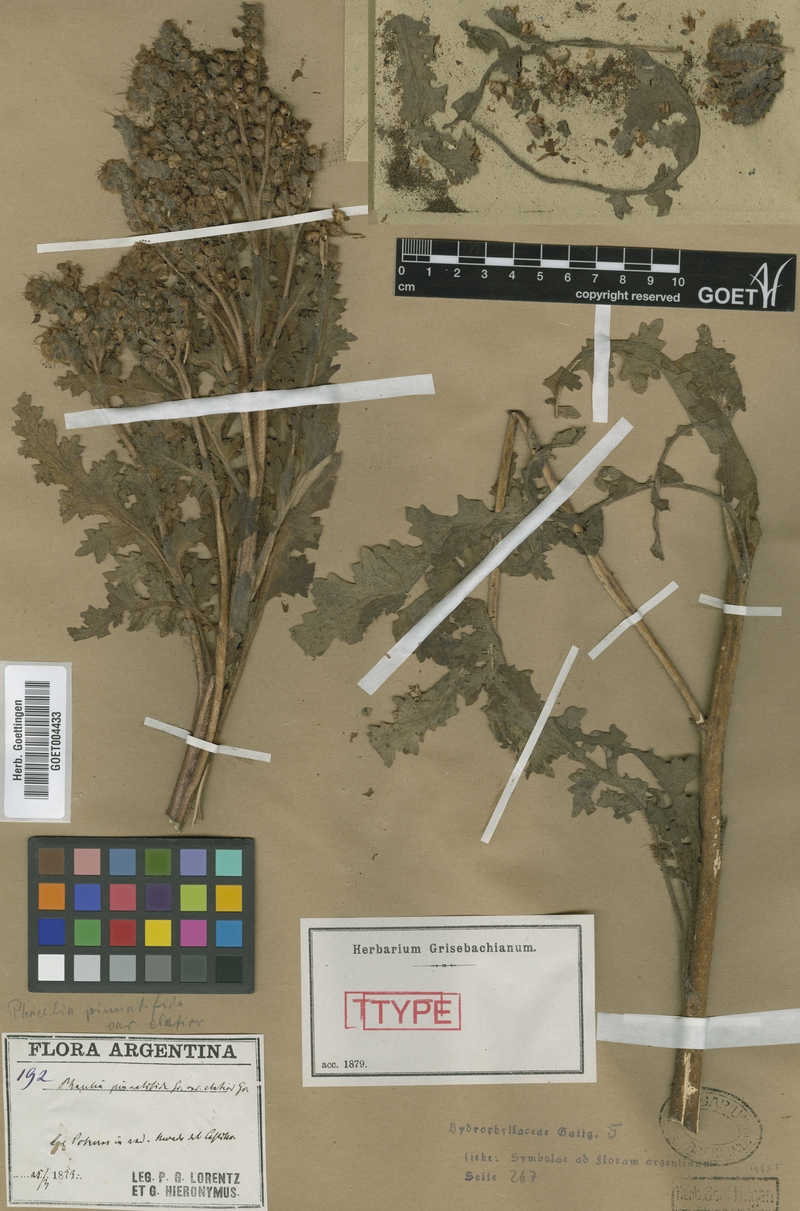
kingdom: Plantae
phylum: Tracheophyta
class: Magnoliopsida
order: Boraginales
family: Hydrophyllaceae
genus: Phacelia
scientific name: Phacelia pinnatifida
